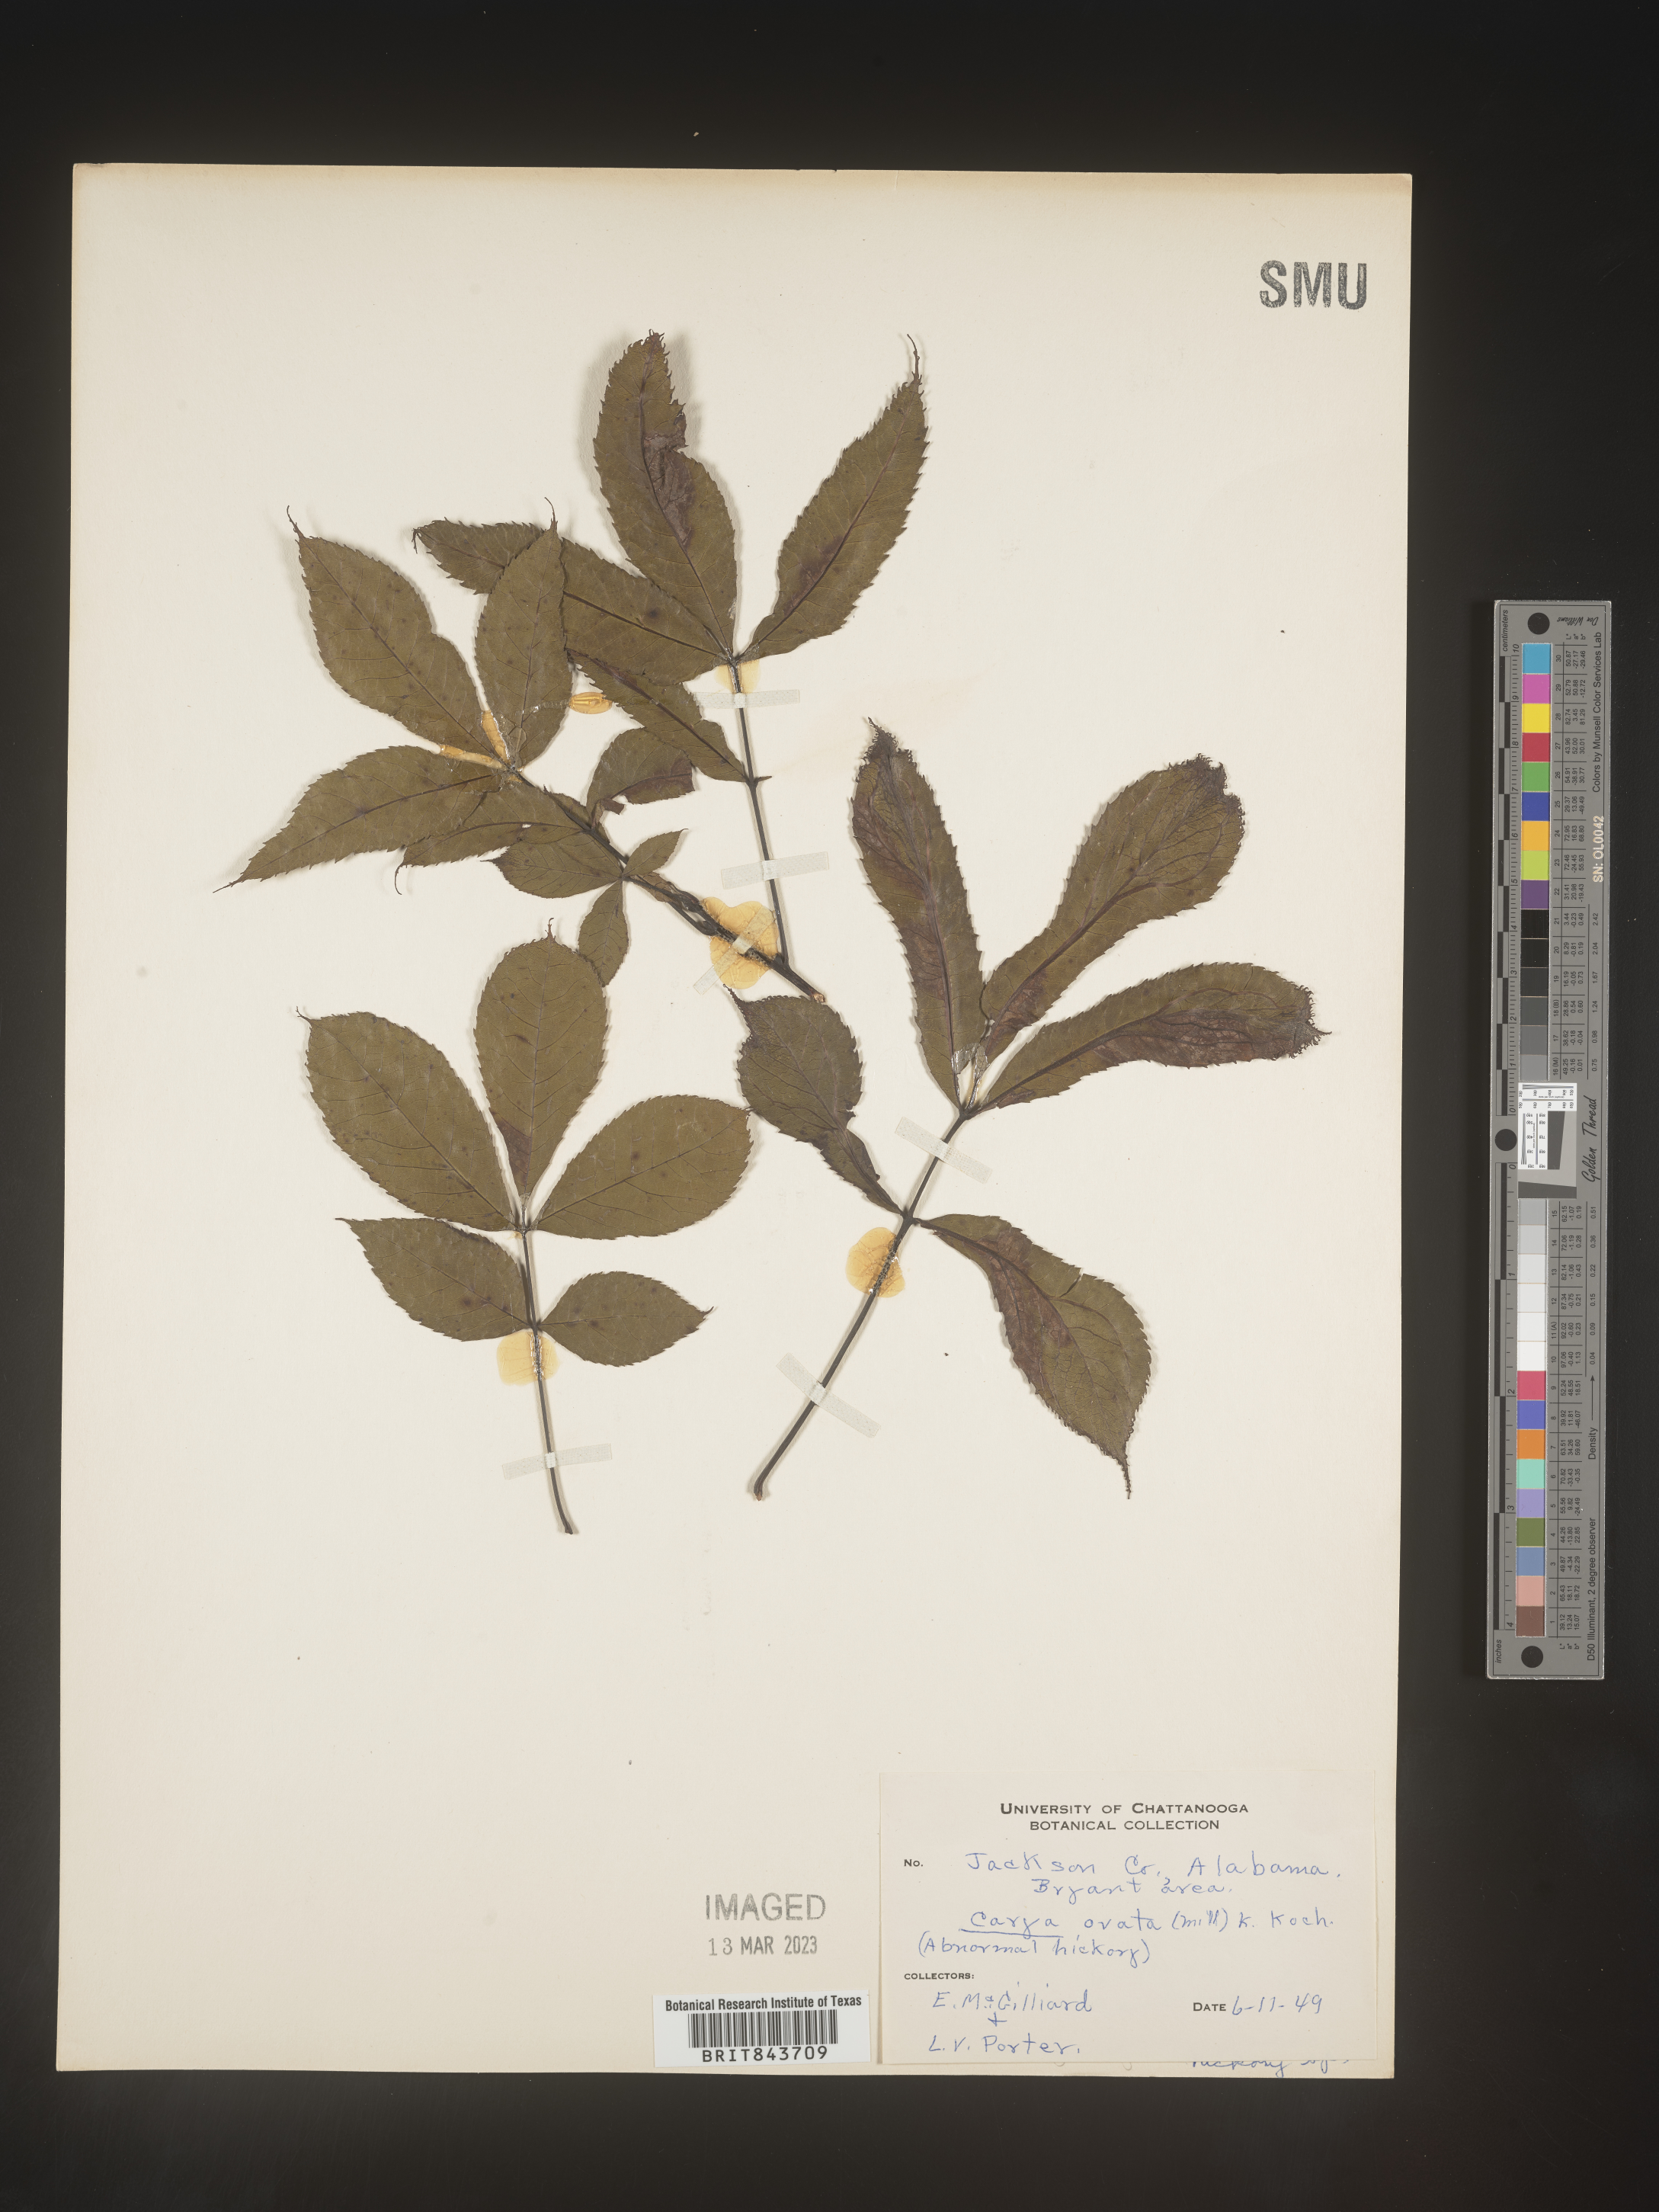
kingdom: Plantae
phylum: Tracheophyta
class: Magnoliopsida
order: Fagales
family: Juglandaceae
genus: Carya
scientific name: Carya ovata
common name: Shagbark hickory
